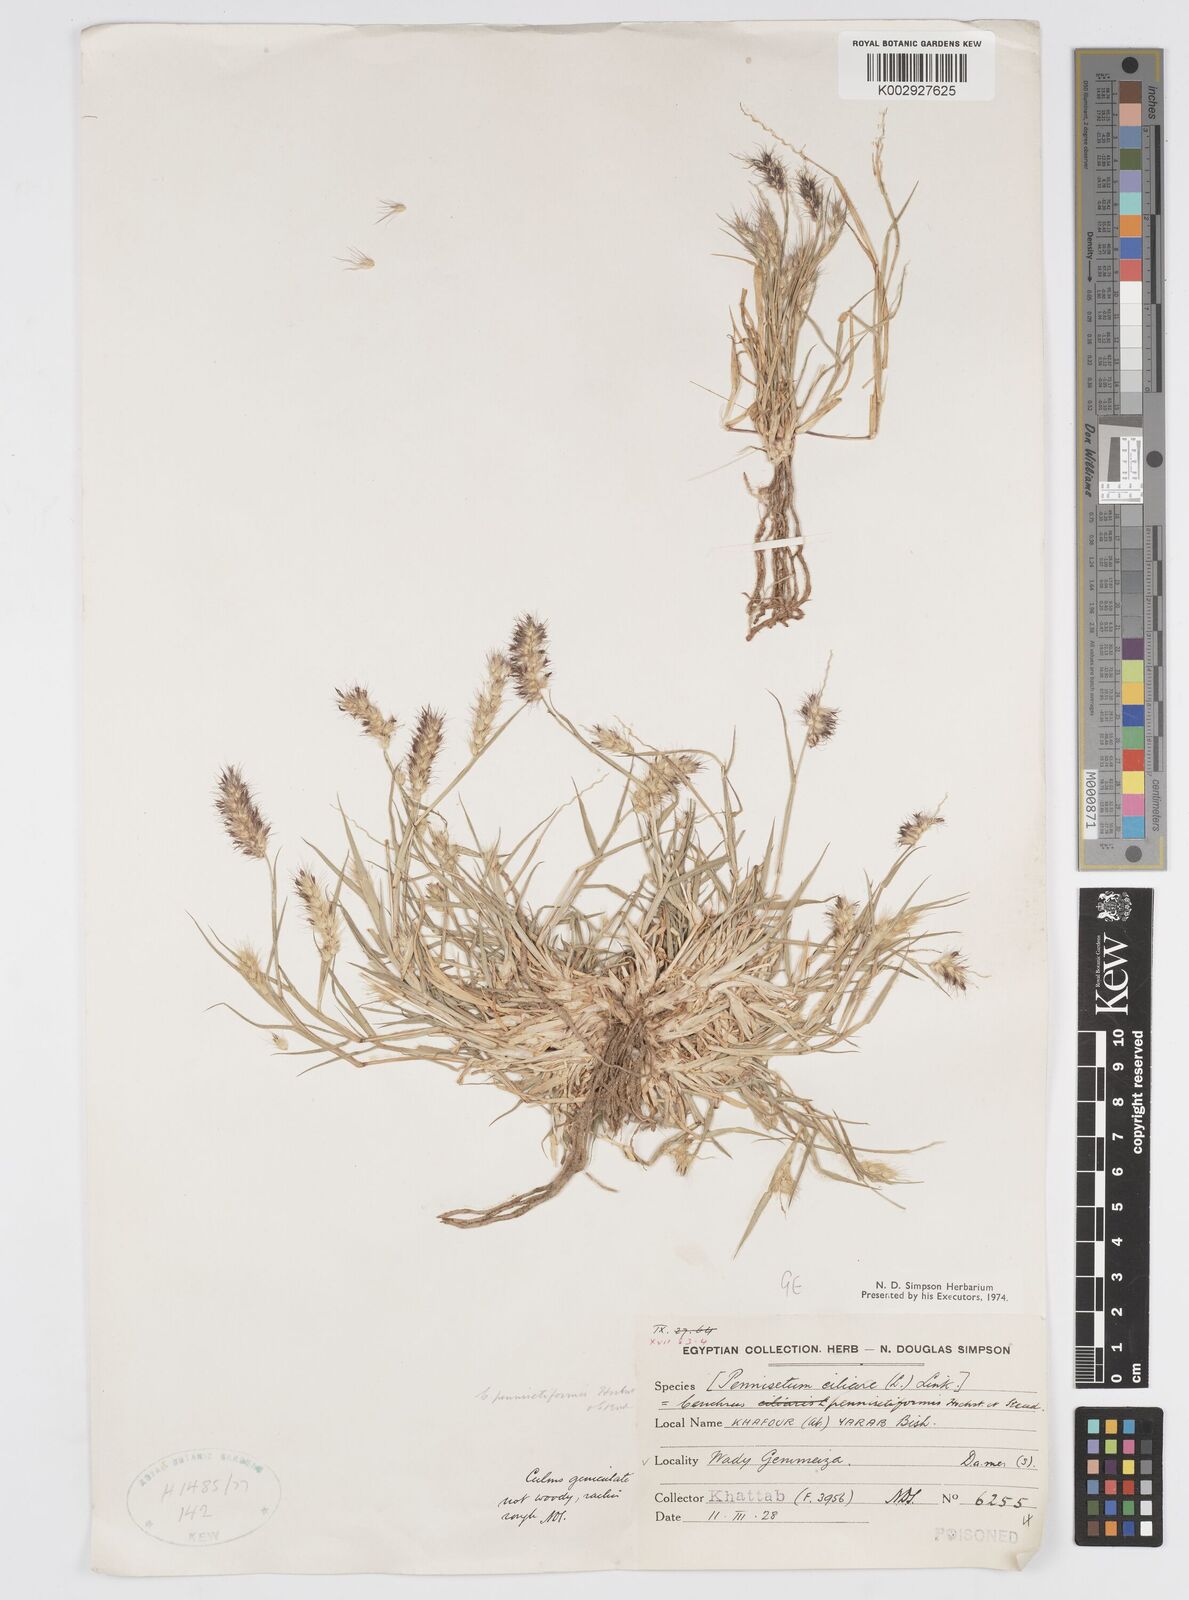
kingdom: Plantae
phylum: Tracheophyta
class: Liliopsida
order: Poales
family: Poaceae
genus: Cenchrus
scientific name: Cenchrus pennisetiformis
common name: Cloncurry
